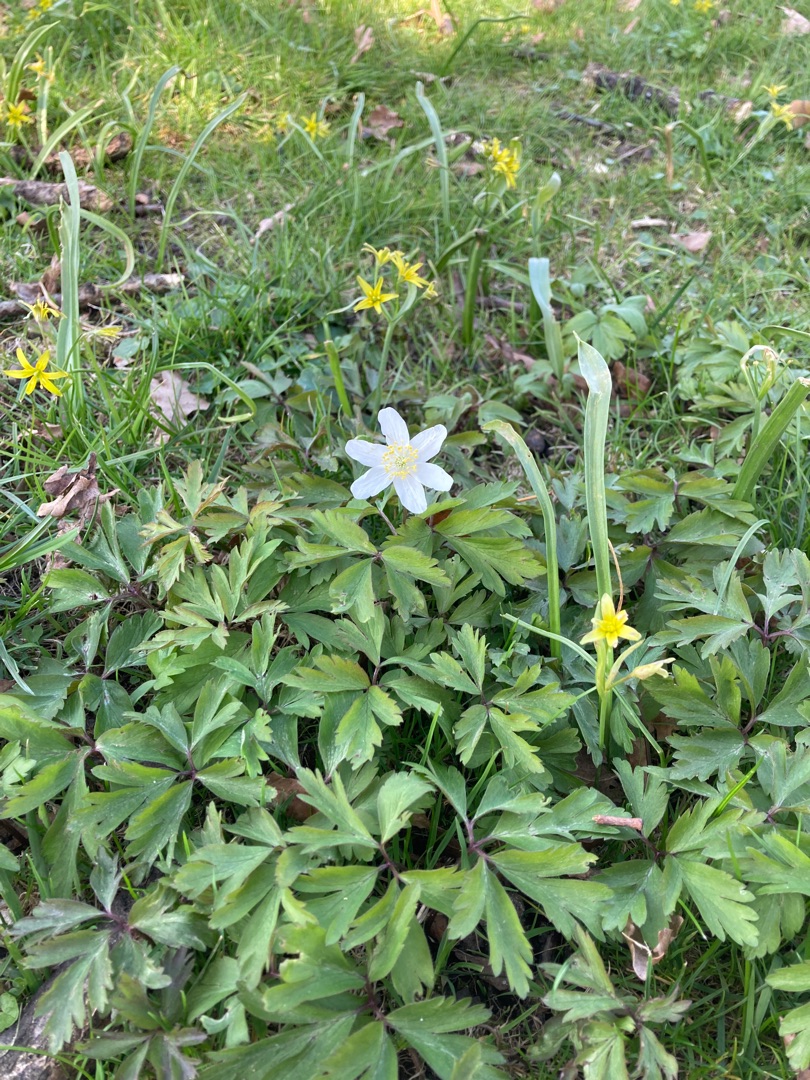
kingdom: Plantae
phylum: Tracheophyta
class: Magnoliopsida
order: Ranunculales
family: Ranunculaceae
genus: Anemone
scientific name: Anemone nemorosa
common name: Hvid anemone
